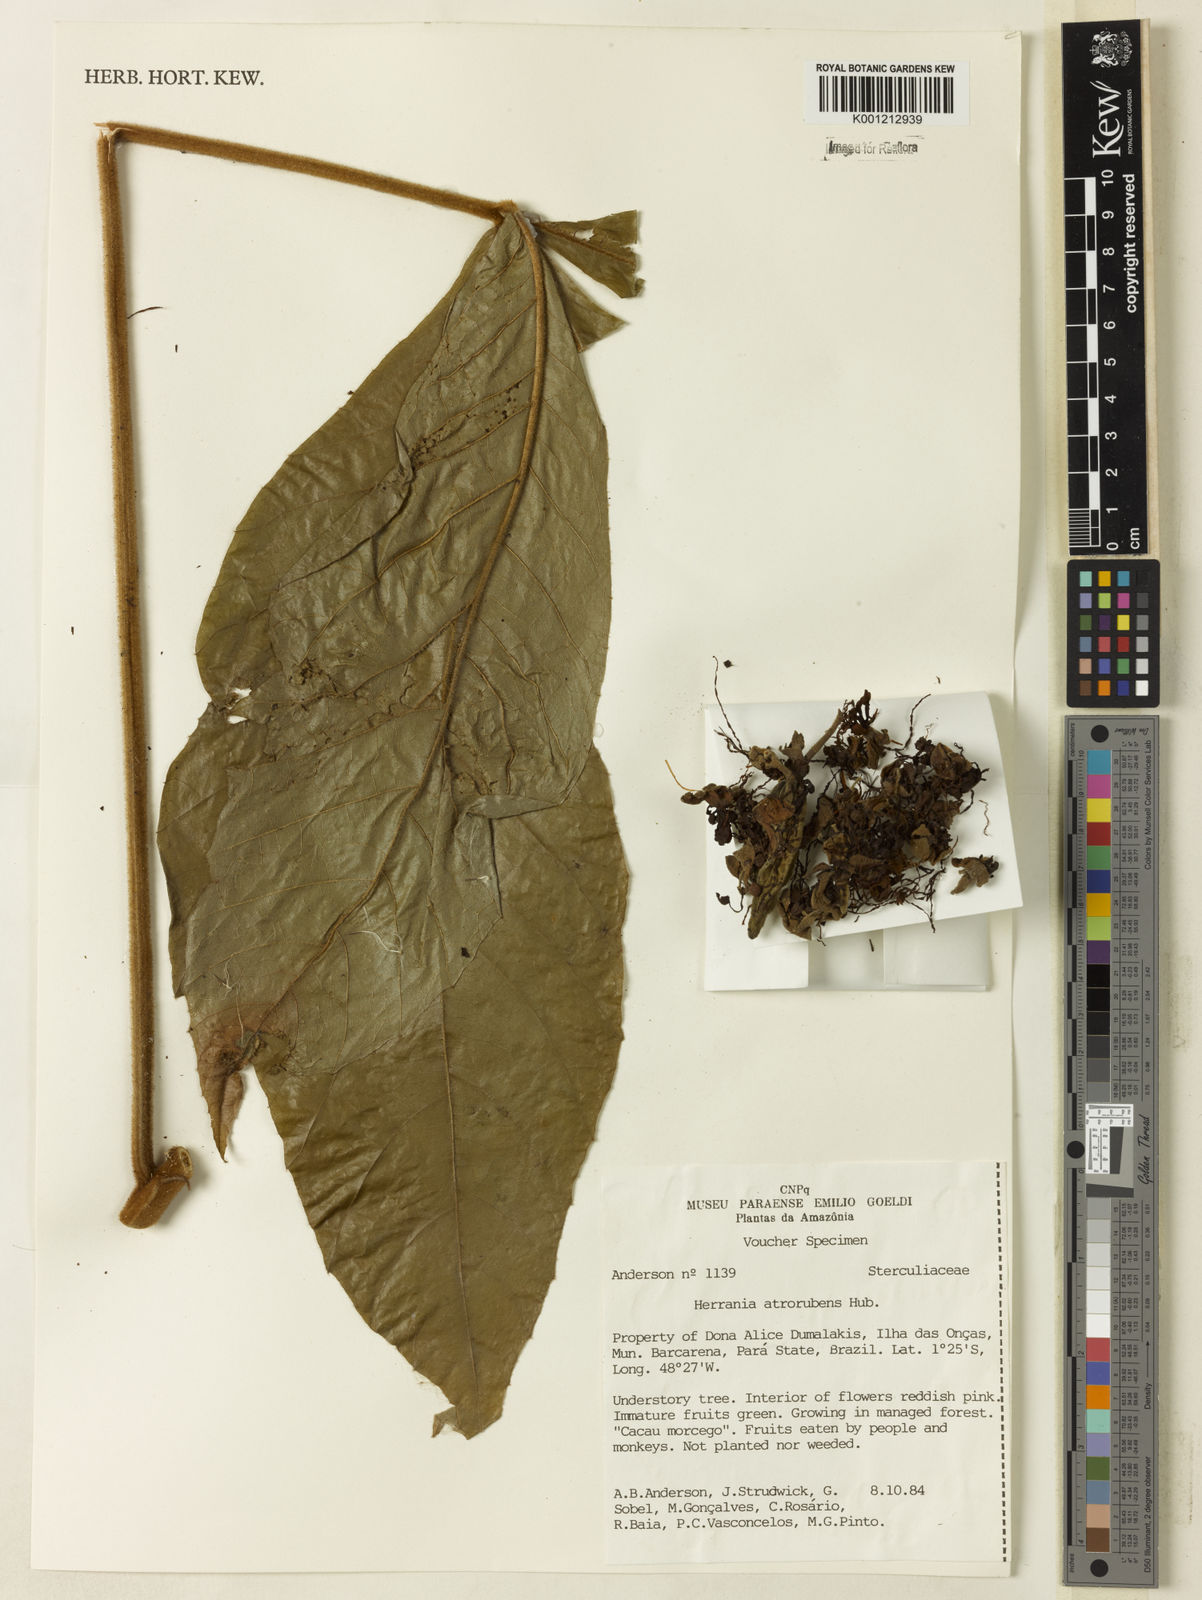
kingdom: Plantae
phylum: Tracheophyta
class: Magnoliopsida
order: Malvales
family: Malvaceae
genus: Herrania
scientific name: Herrania nitida
